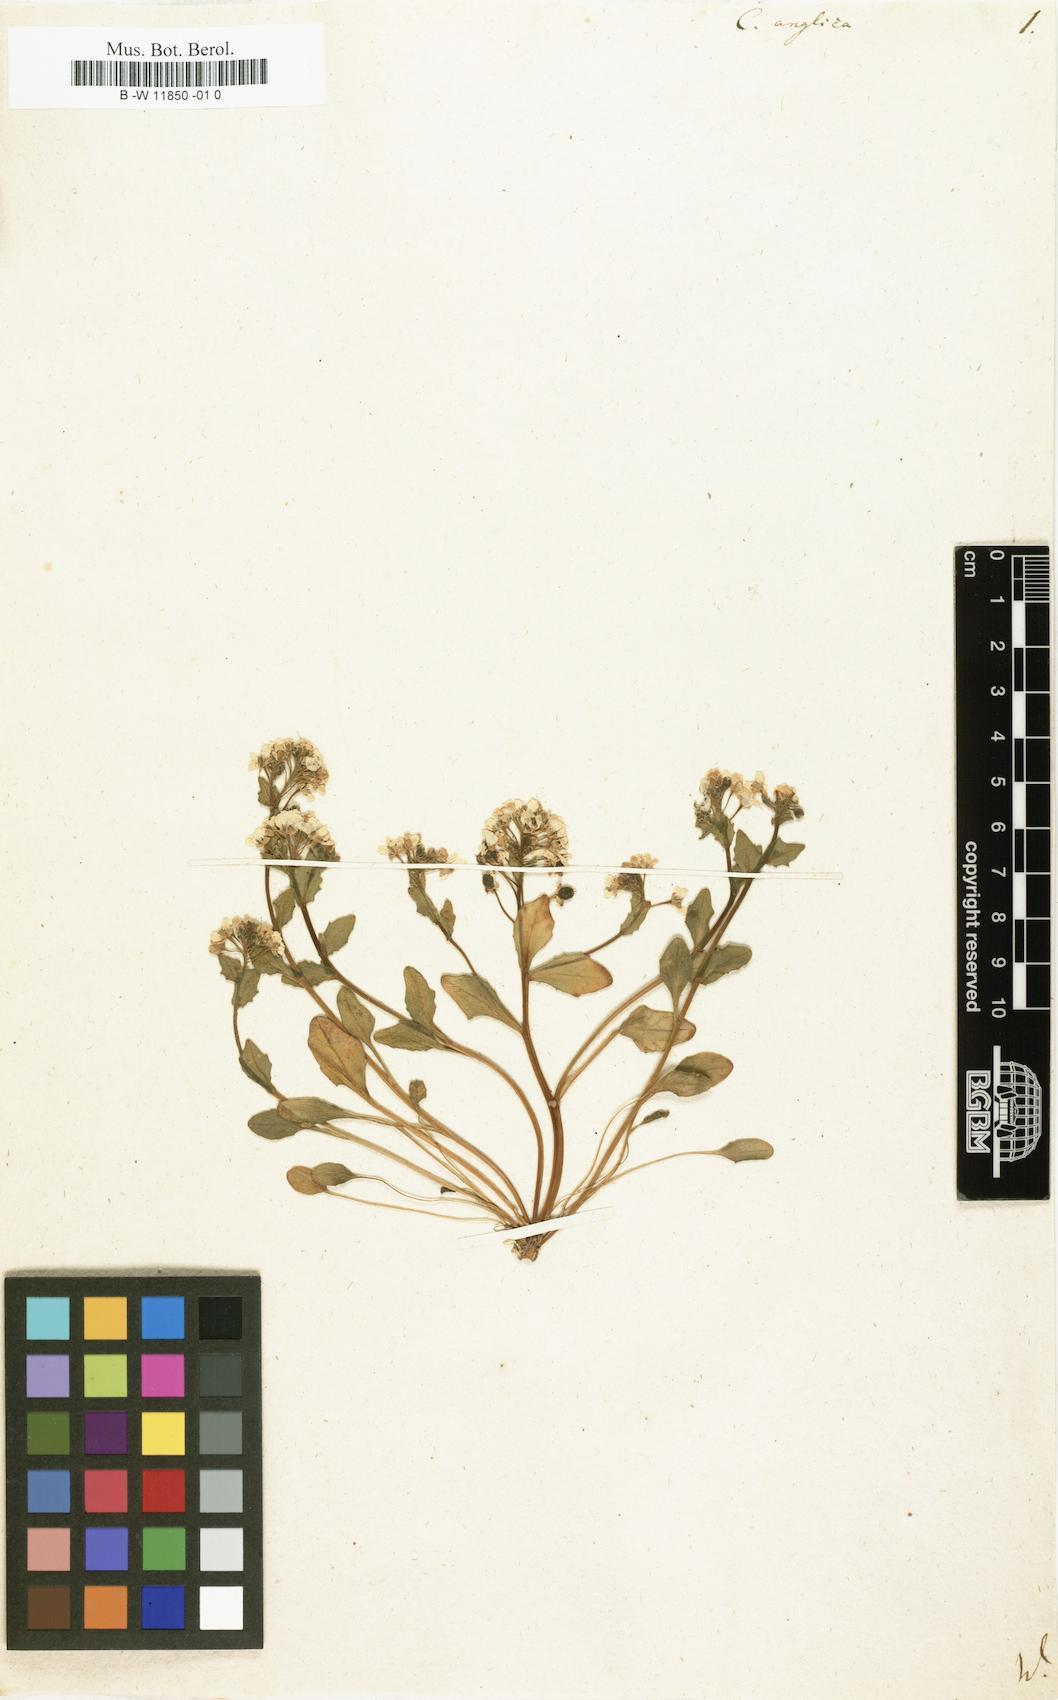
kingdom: Plantae
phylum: Tracheophyta
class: Magnoliopsida
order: Brassicales
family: Brassicaceae
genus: Cochlearia
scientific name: Cochlearia anglica
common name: English scurvygrass
